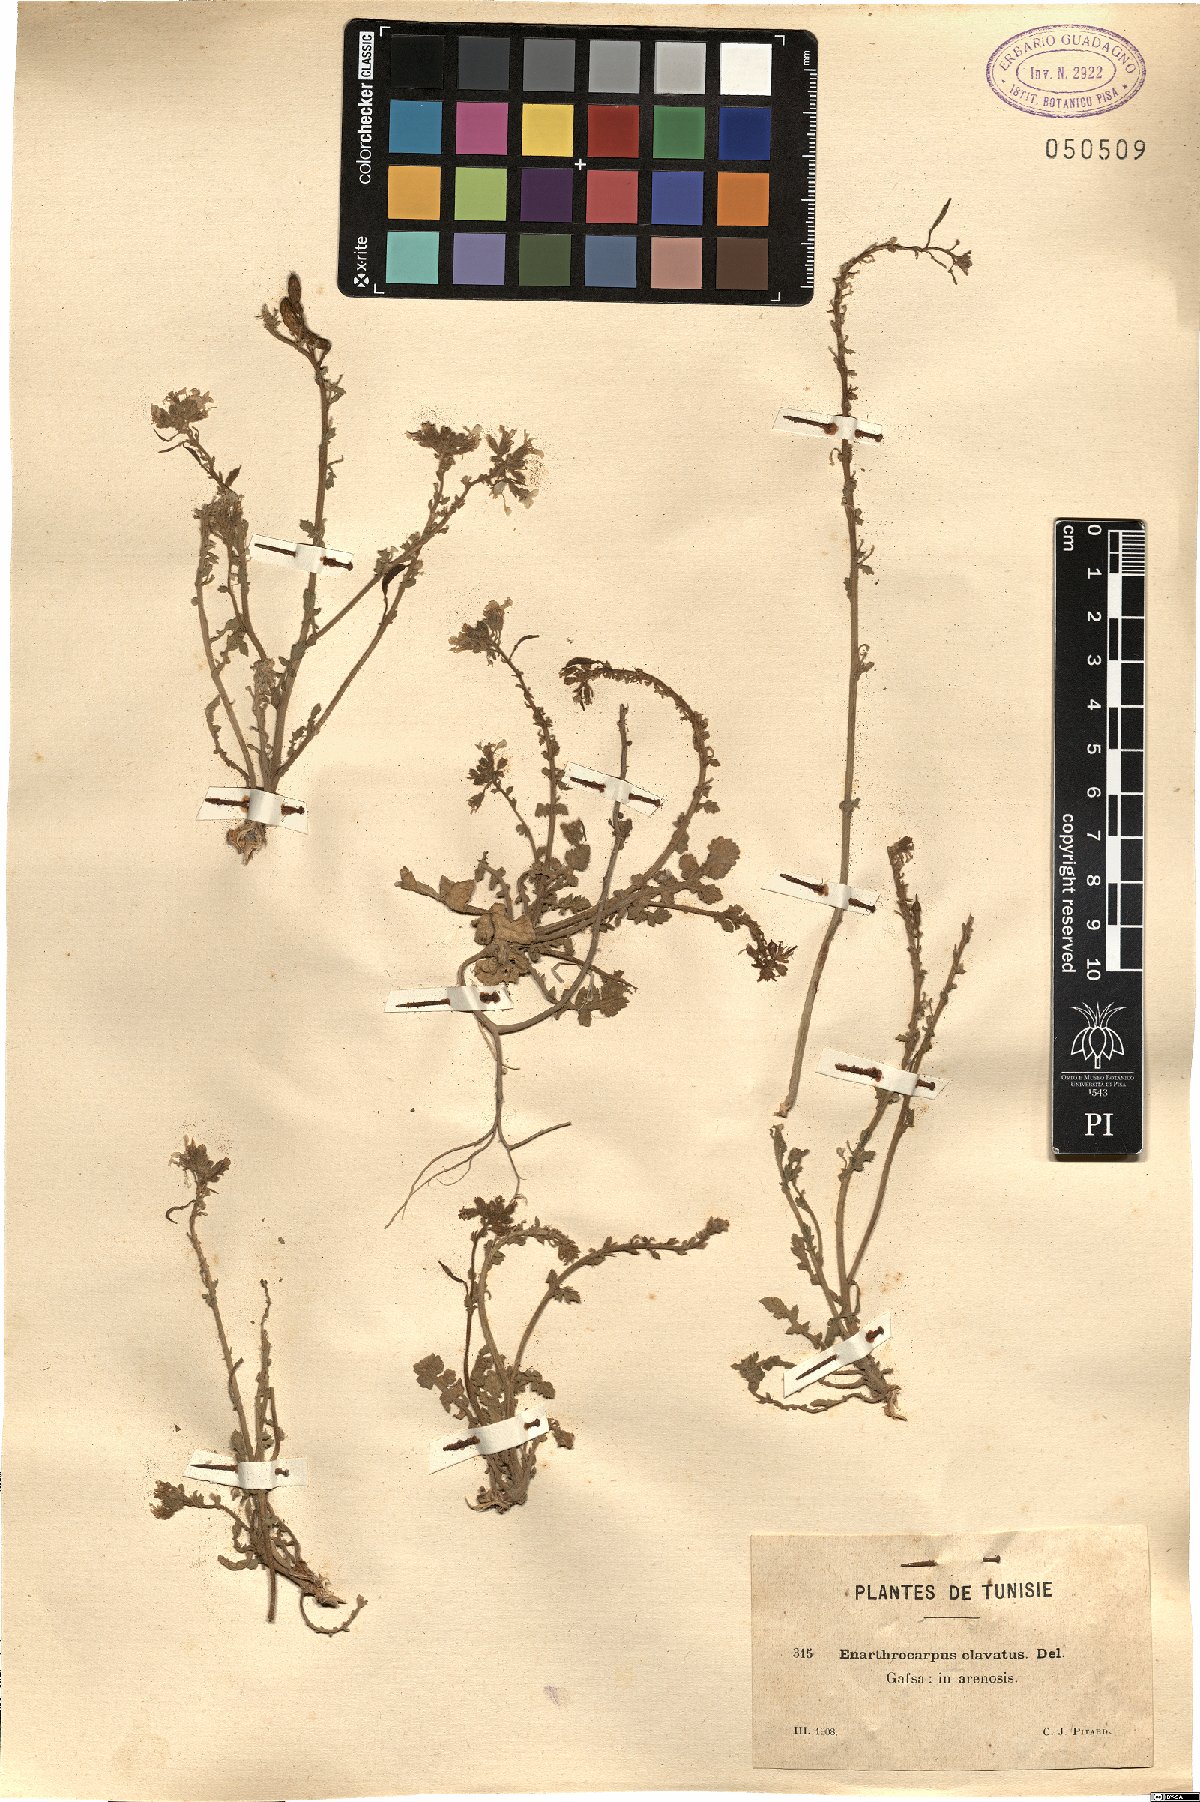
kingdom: Plantae
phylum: Tracheophyta
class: Magnoliopsida
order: Brassicales
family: Brassicaceae
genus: Enarthrocarpus
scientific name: Enarthrocarpus clavatus
